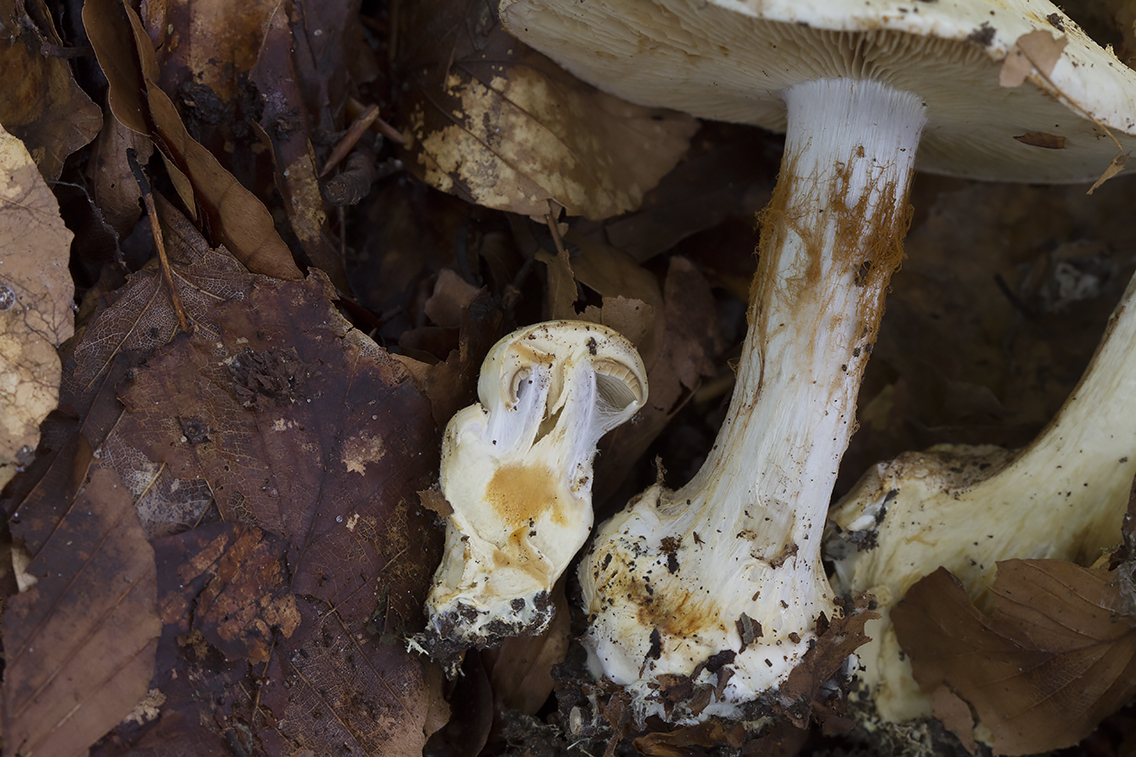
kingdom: Fungi
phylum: Basidiomycota
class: Agaricomycetes
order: Agaricales
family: Cortinariaceae
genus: Cortinarius
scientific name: Cortinarius foetens
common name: stribet slørhat
